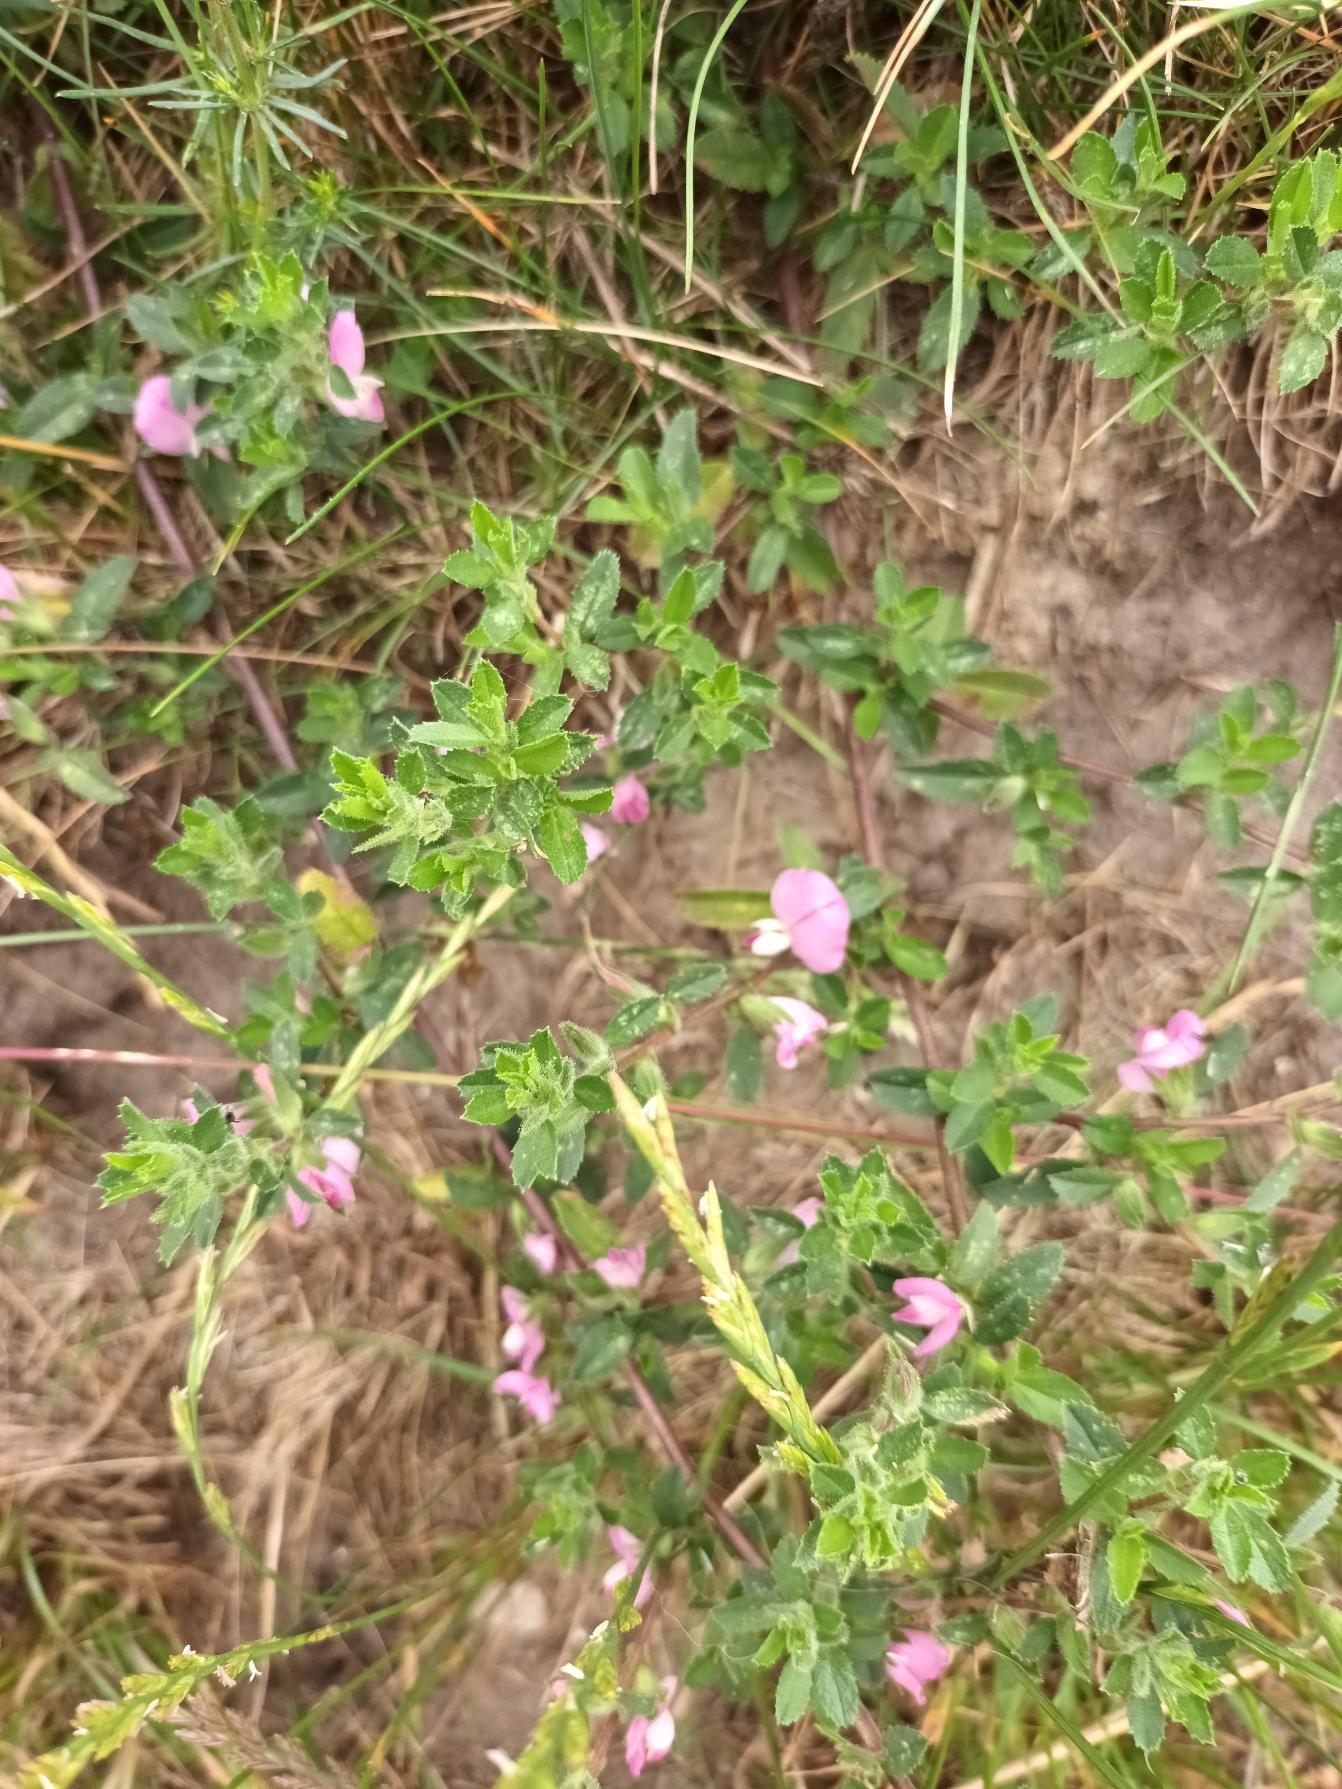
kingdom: Plantae
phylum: Tracheophyta
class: Magnoliopsida
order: Fabales
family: Fabaceae
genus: Ononis
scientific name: Ononis spinosa
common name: Mark-krageklo
